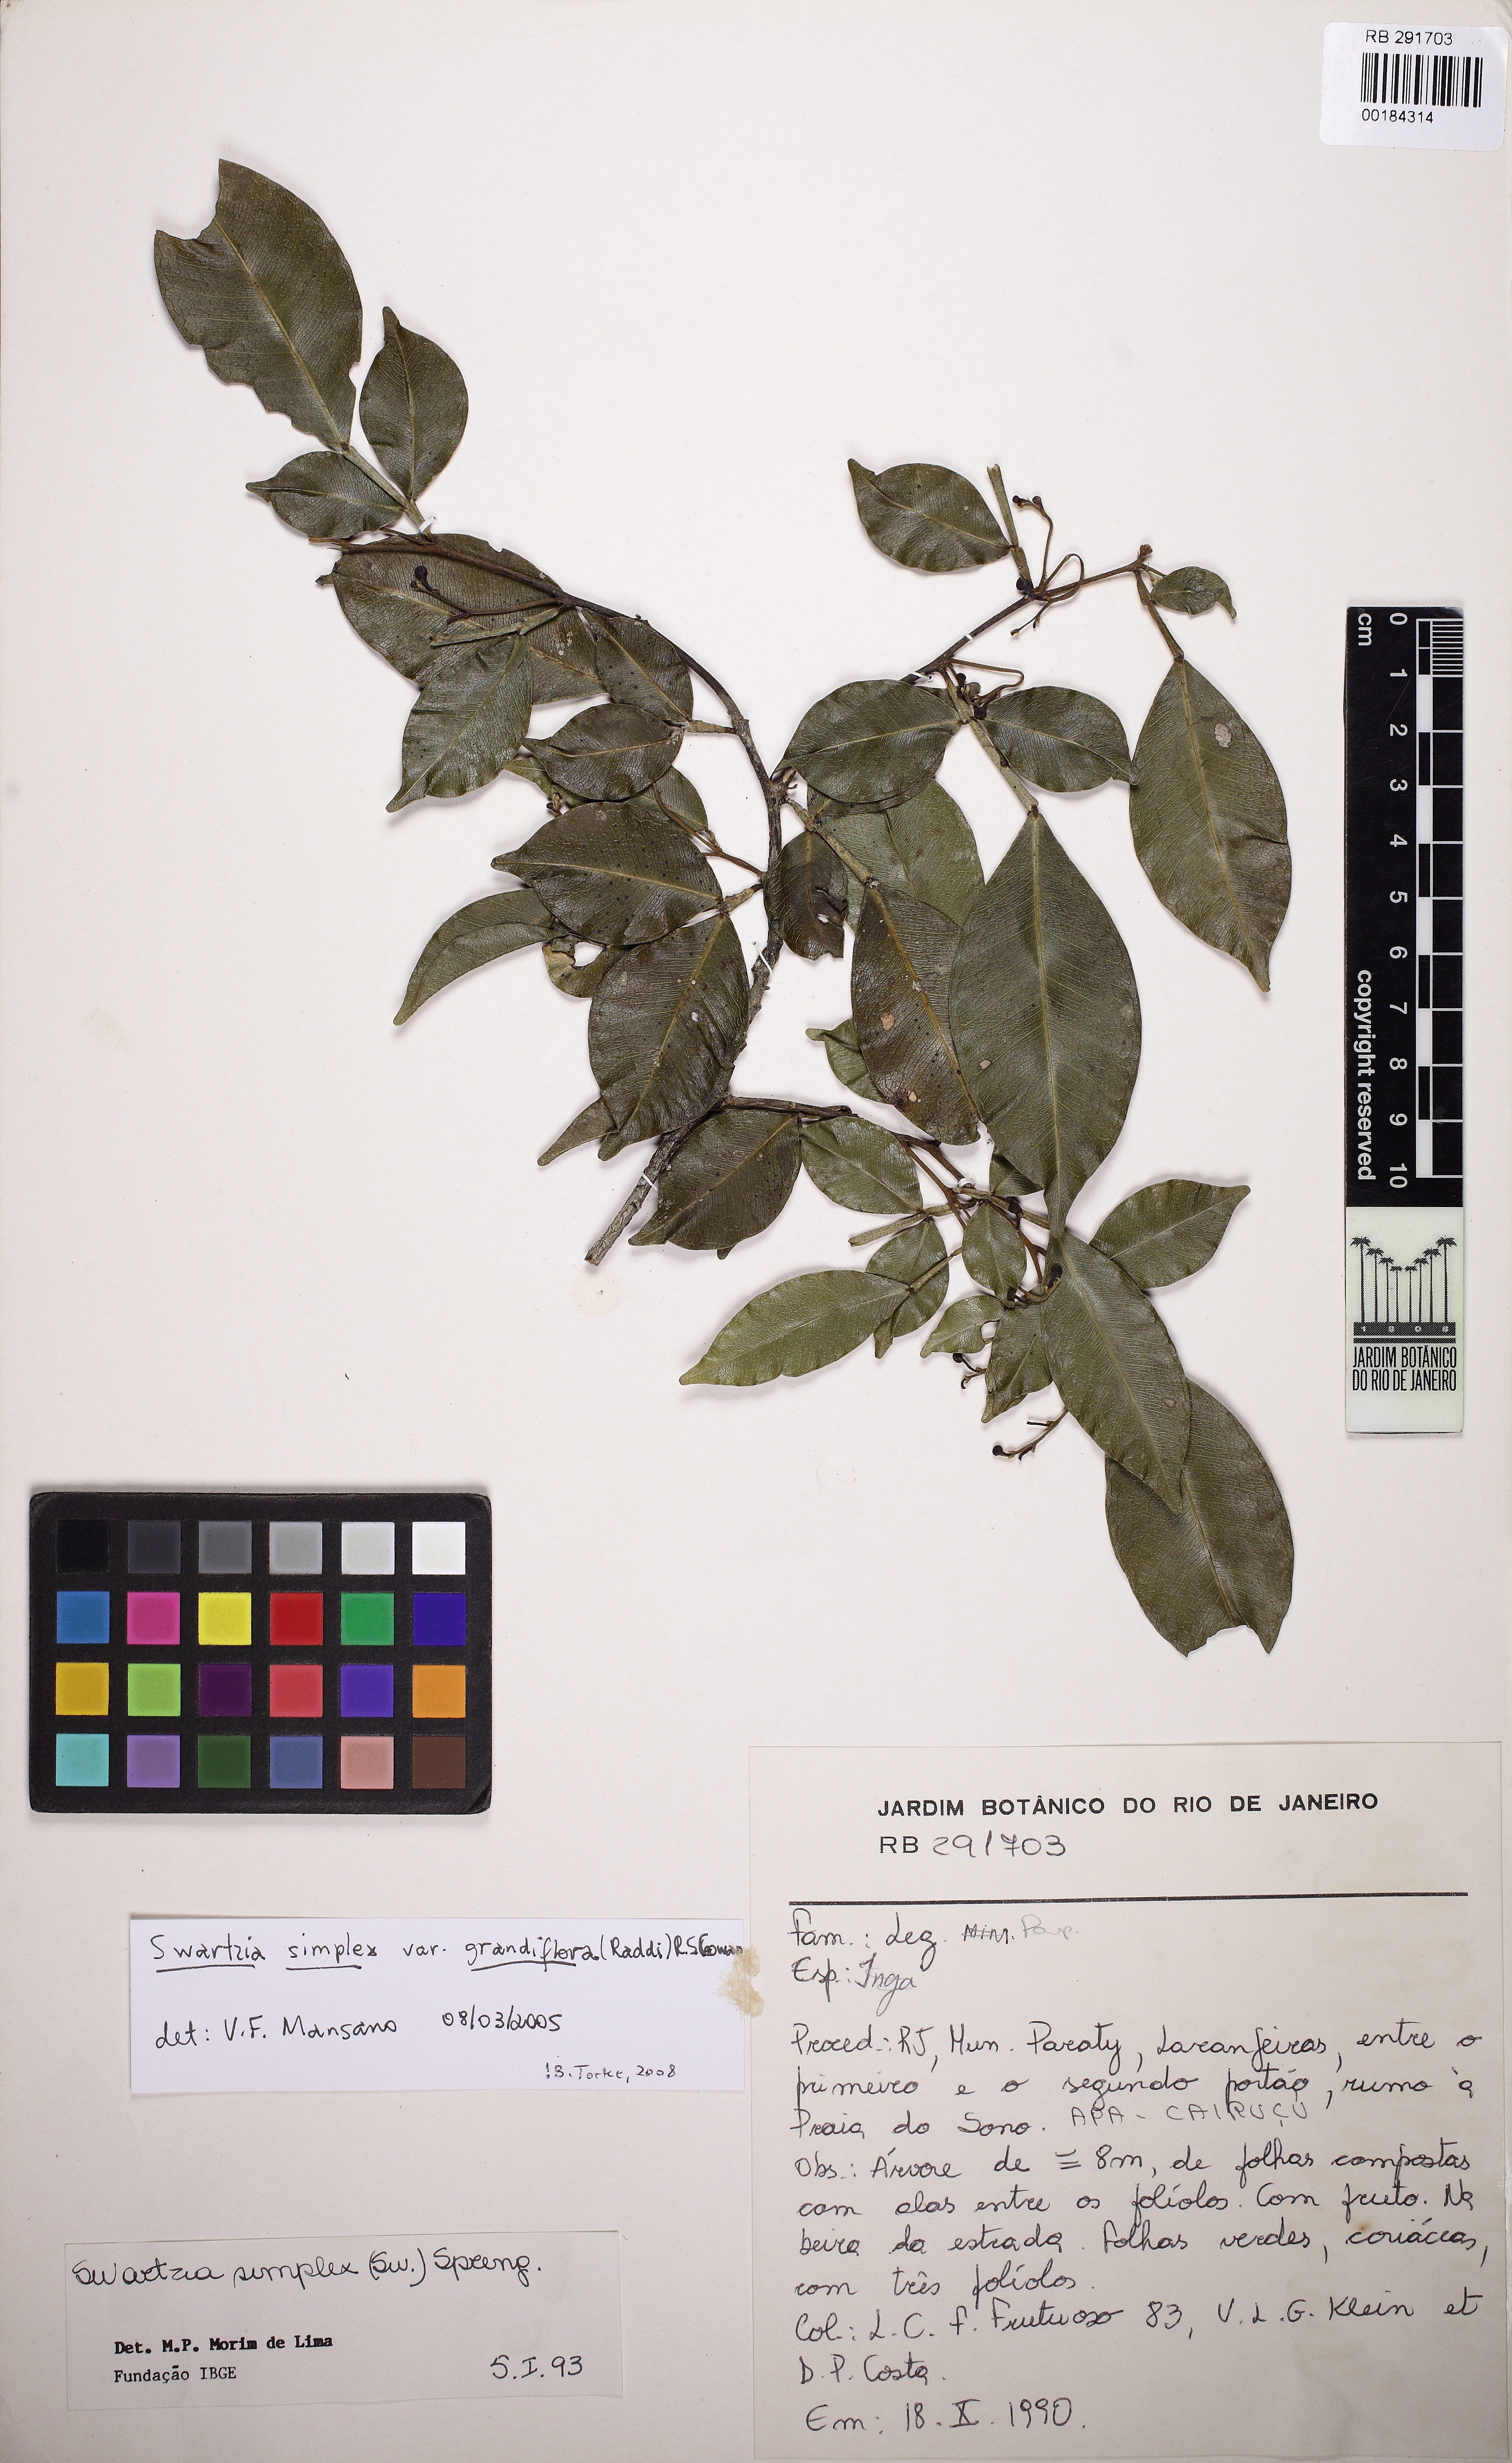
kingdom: Plantae
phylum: Tracheophyta
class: Magnoliopsida
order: Fabales
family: Fabaceae
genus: Swartzia
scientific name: Swartzia simplex
